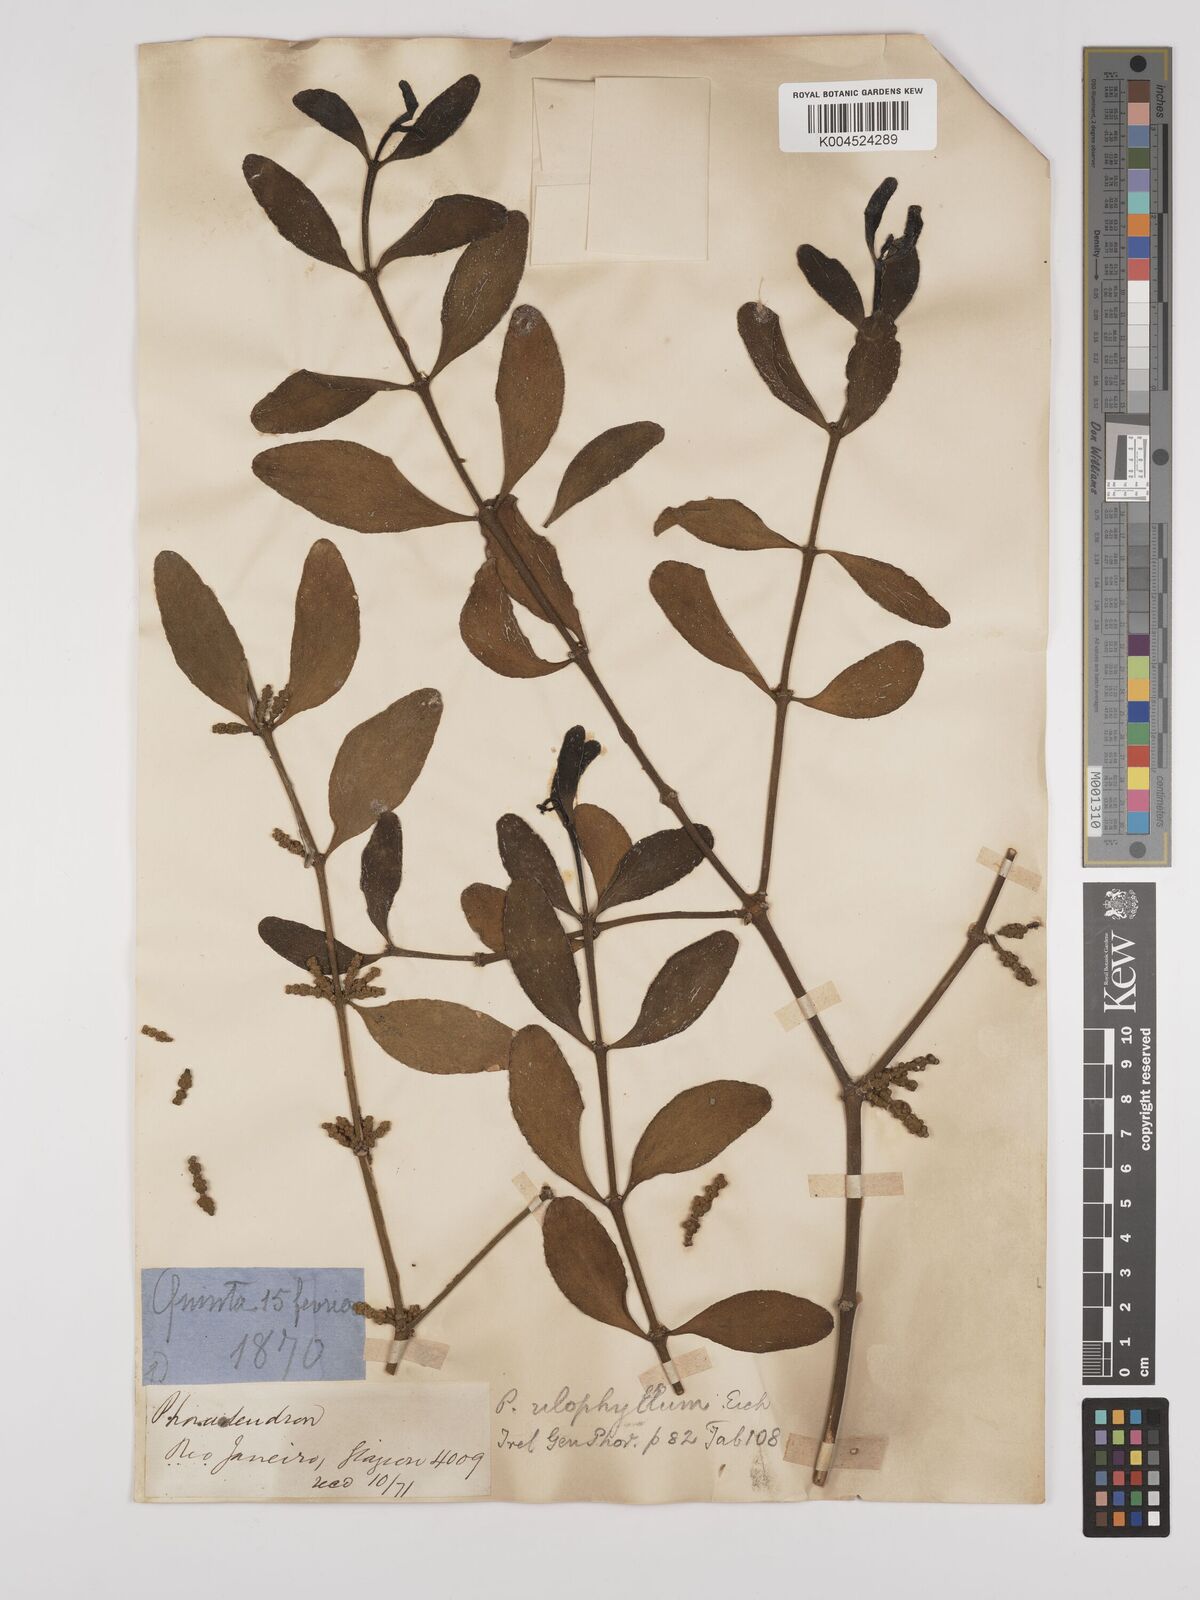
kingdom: Plantae
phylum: Tracheophyta
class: Magnoliopsida
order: Santalales
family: Viscaceae
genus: Phoradendron
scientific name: Phoradendron bathyoryctum
